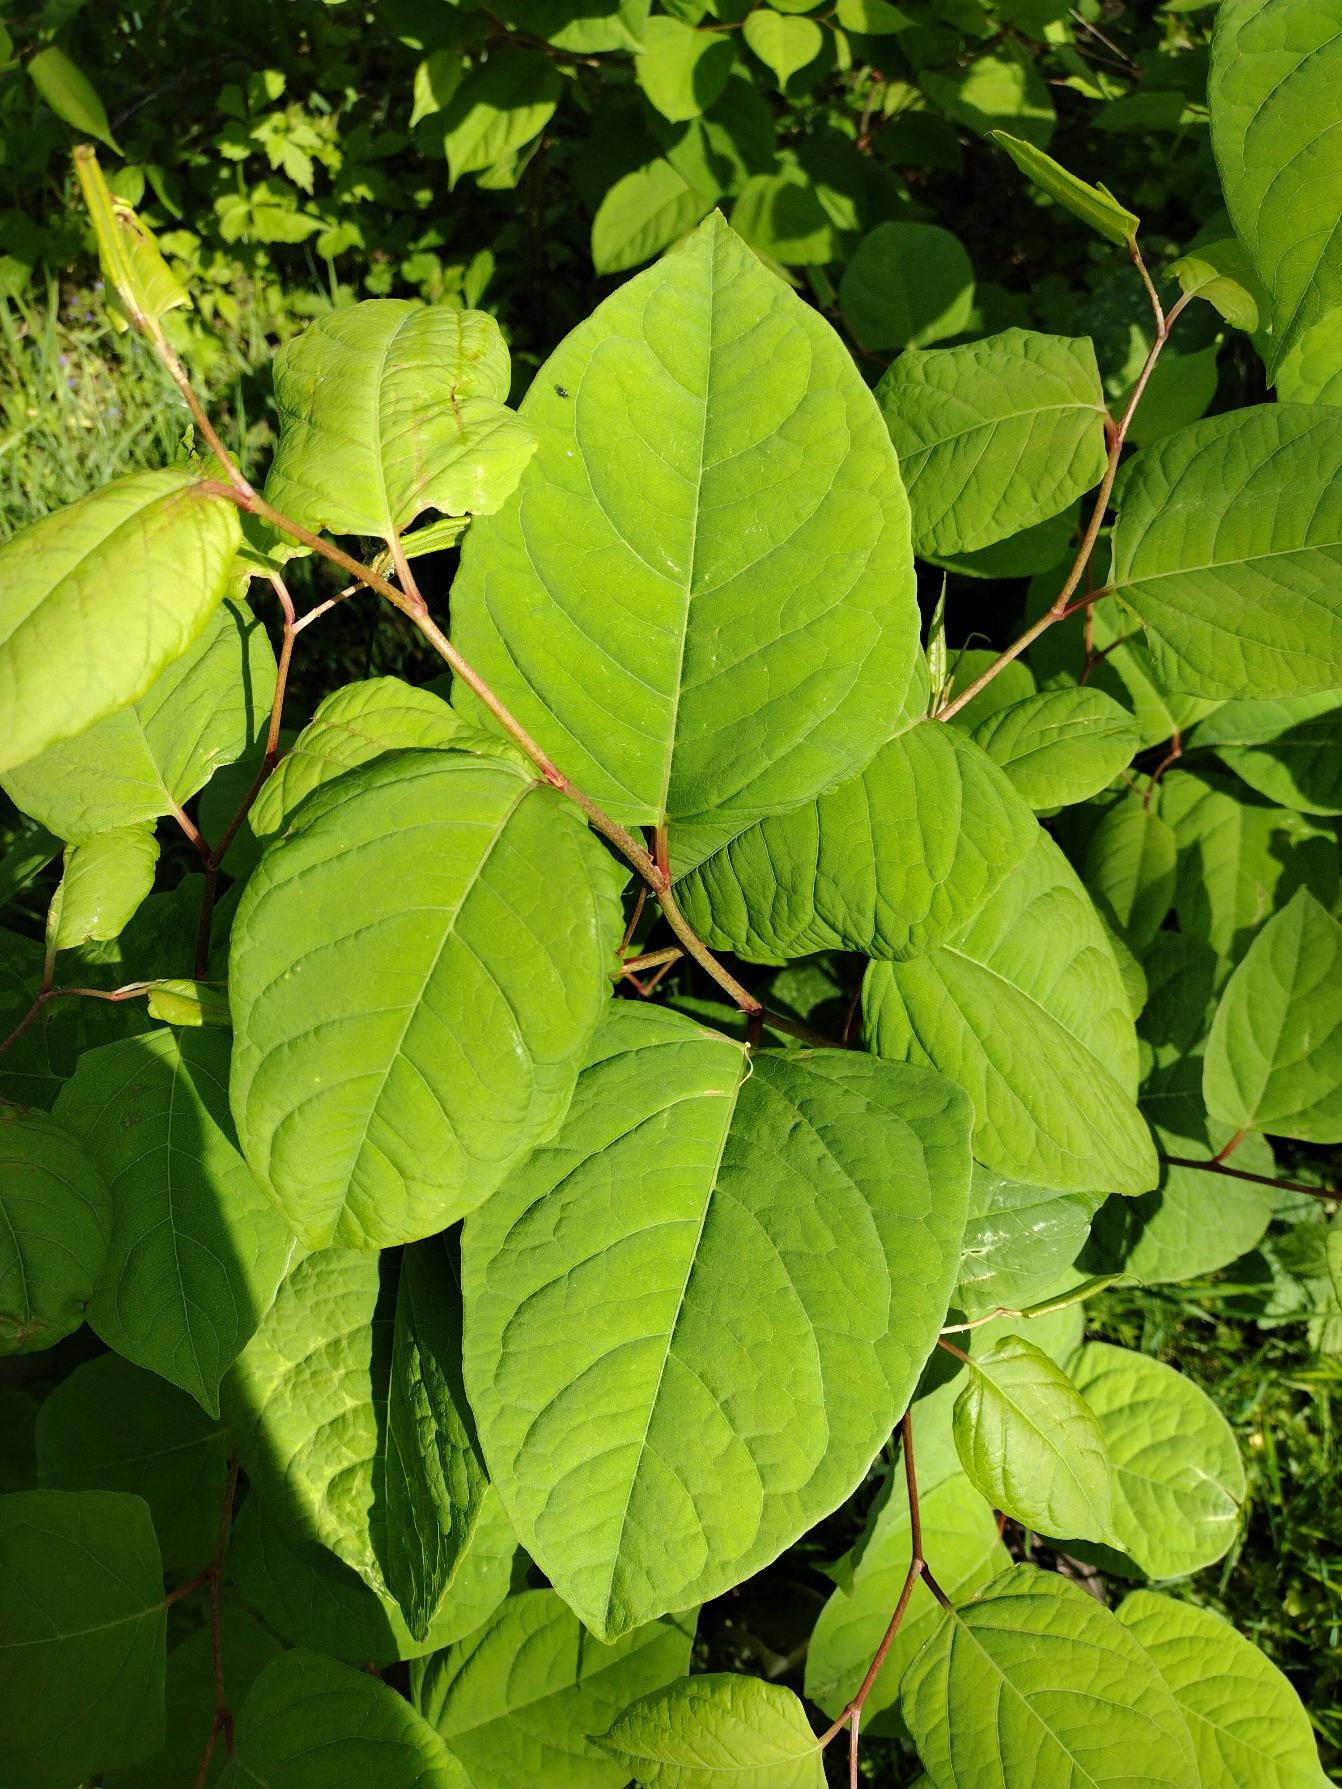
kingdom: Plantae
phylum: Tracheophyta
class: Magnoliopsida
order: Caryophyllales
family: Polygonaceae
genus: Reynoutria
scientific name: Reynoutria japonica
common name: Japan-pileurt
